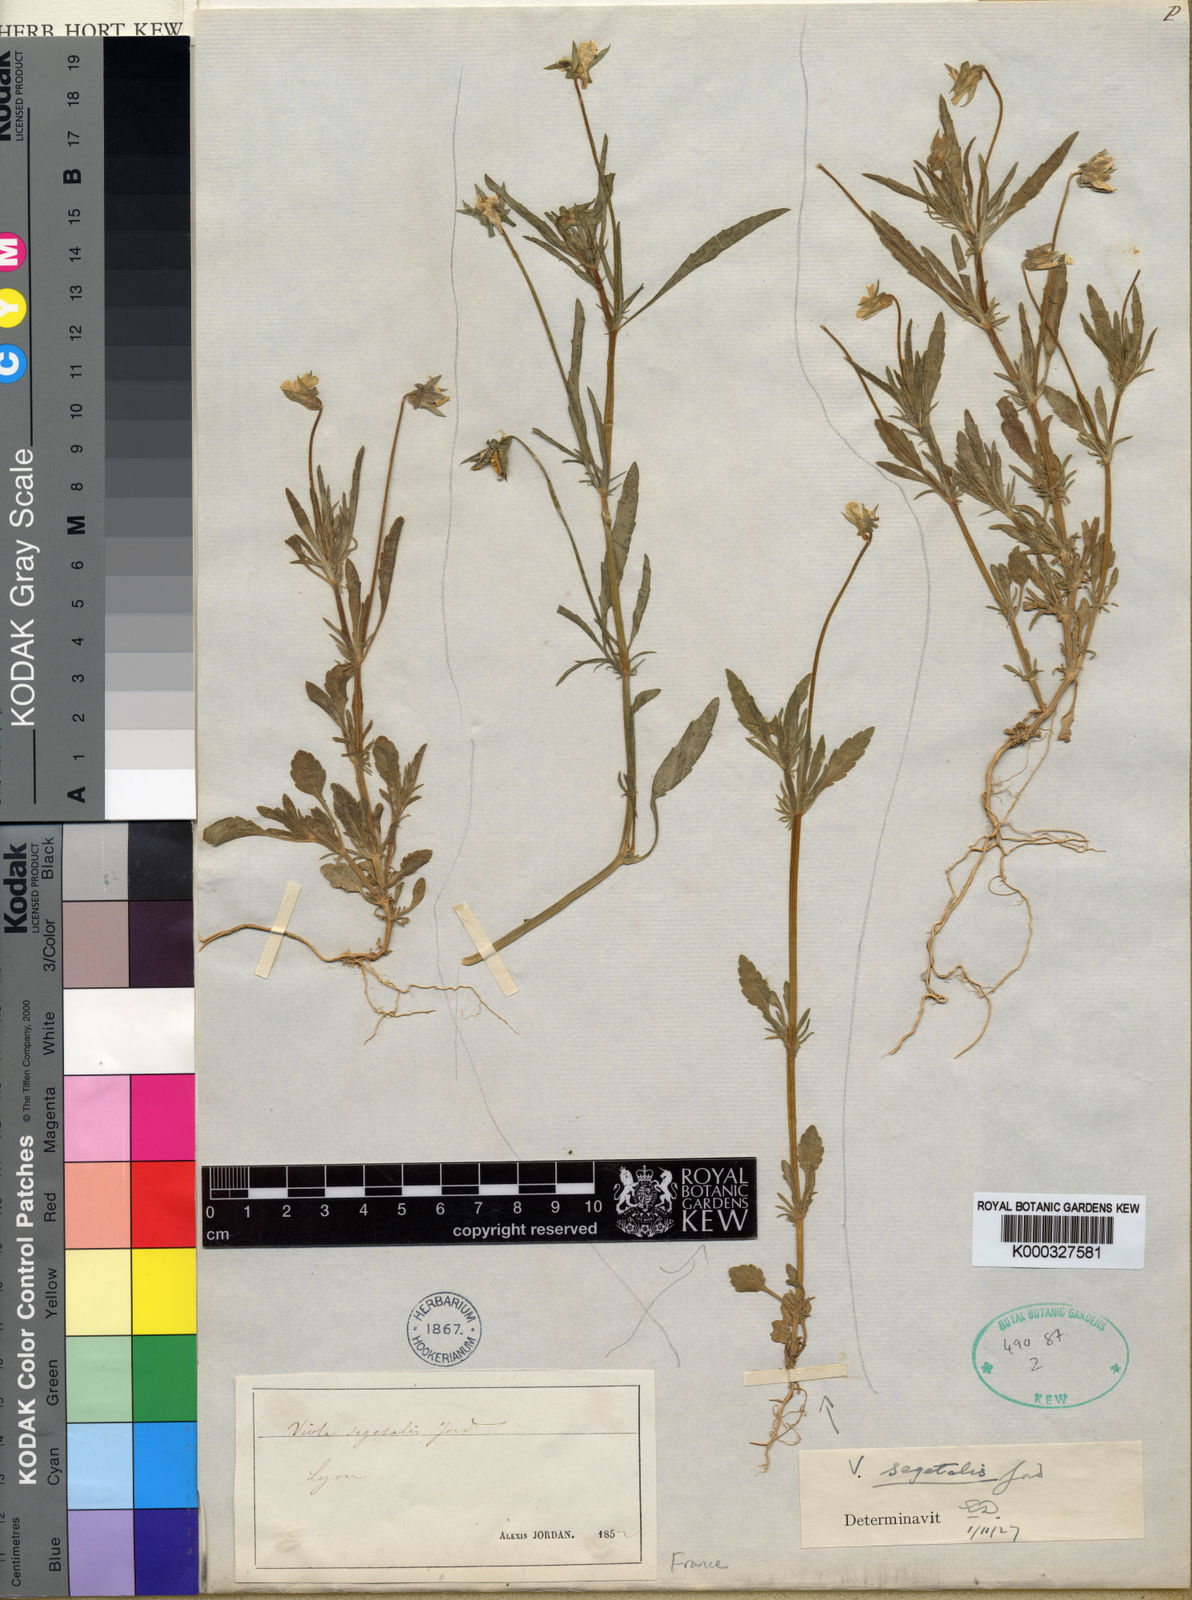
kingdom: Plantae
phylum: Tracheophyta
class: Magnoliopsida
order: Malpighiales
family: Violaceae
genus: Viola
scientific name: Viola arvensis
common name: Field pansy
